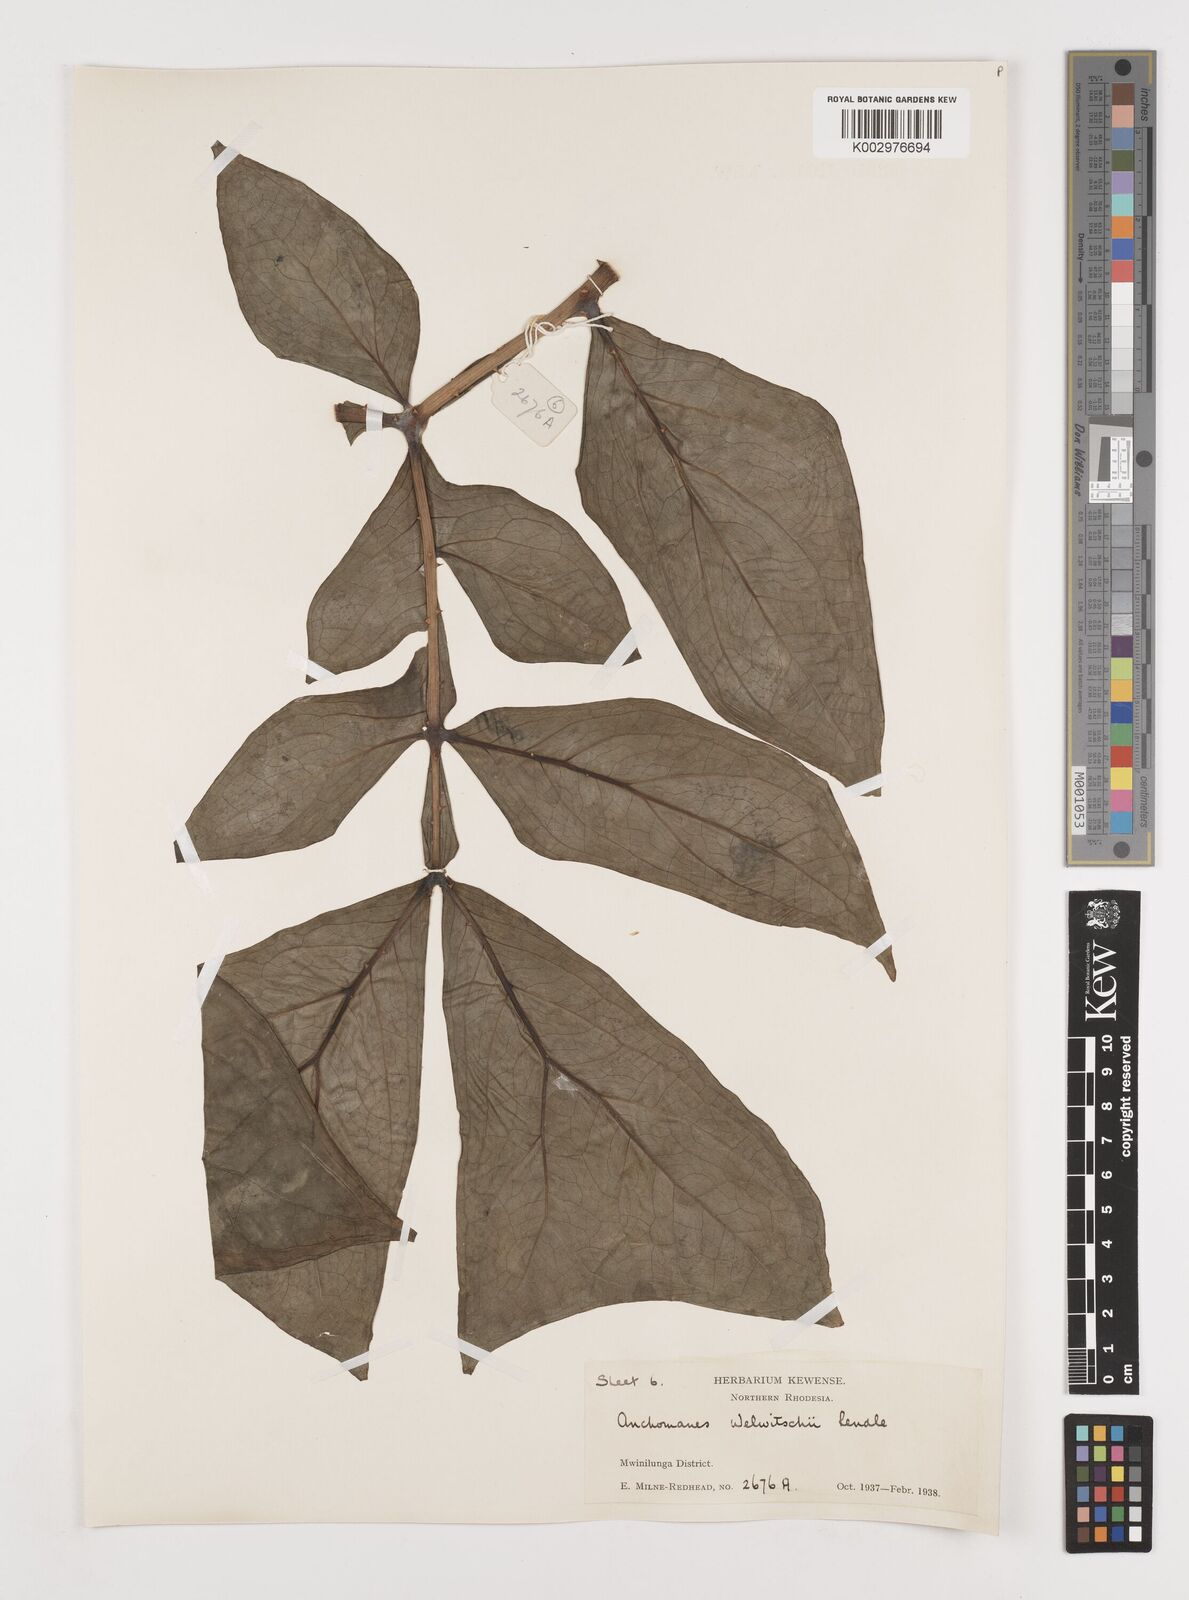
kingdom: Plantae
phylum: Tracheophyta
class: Liliopsida
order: Alismatales
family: Araceae
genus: Anchomanes
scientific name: Anchomanes difformis
